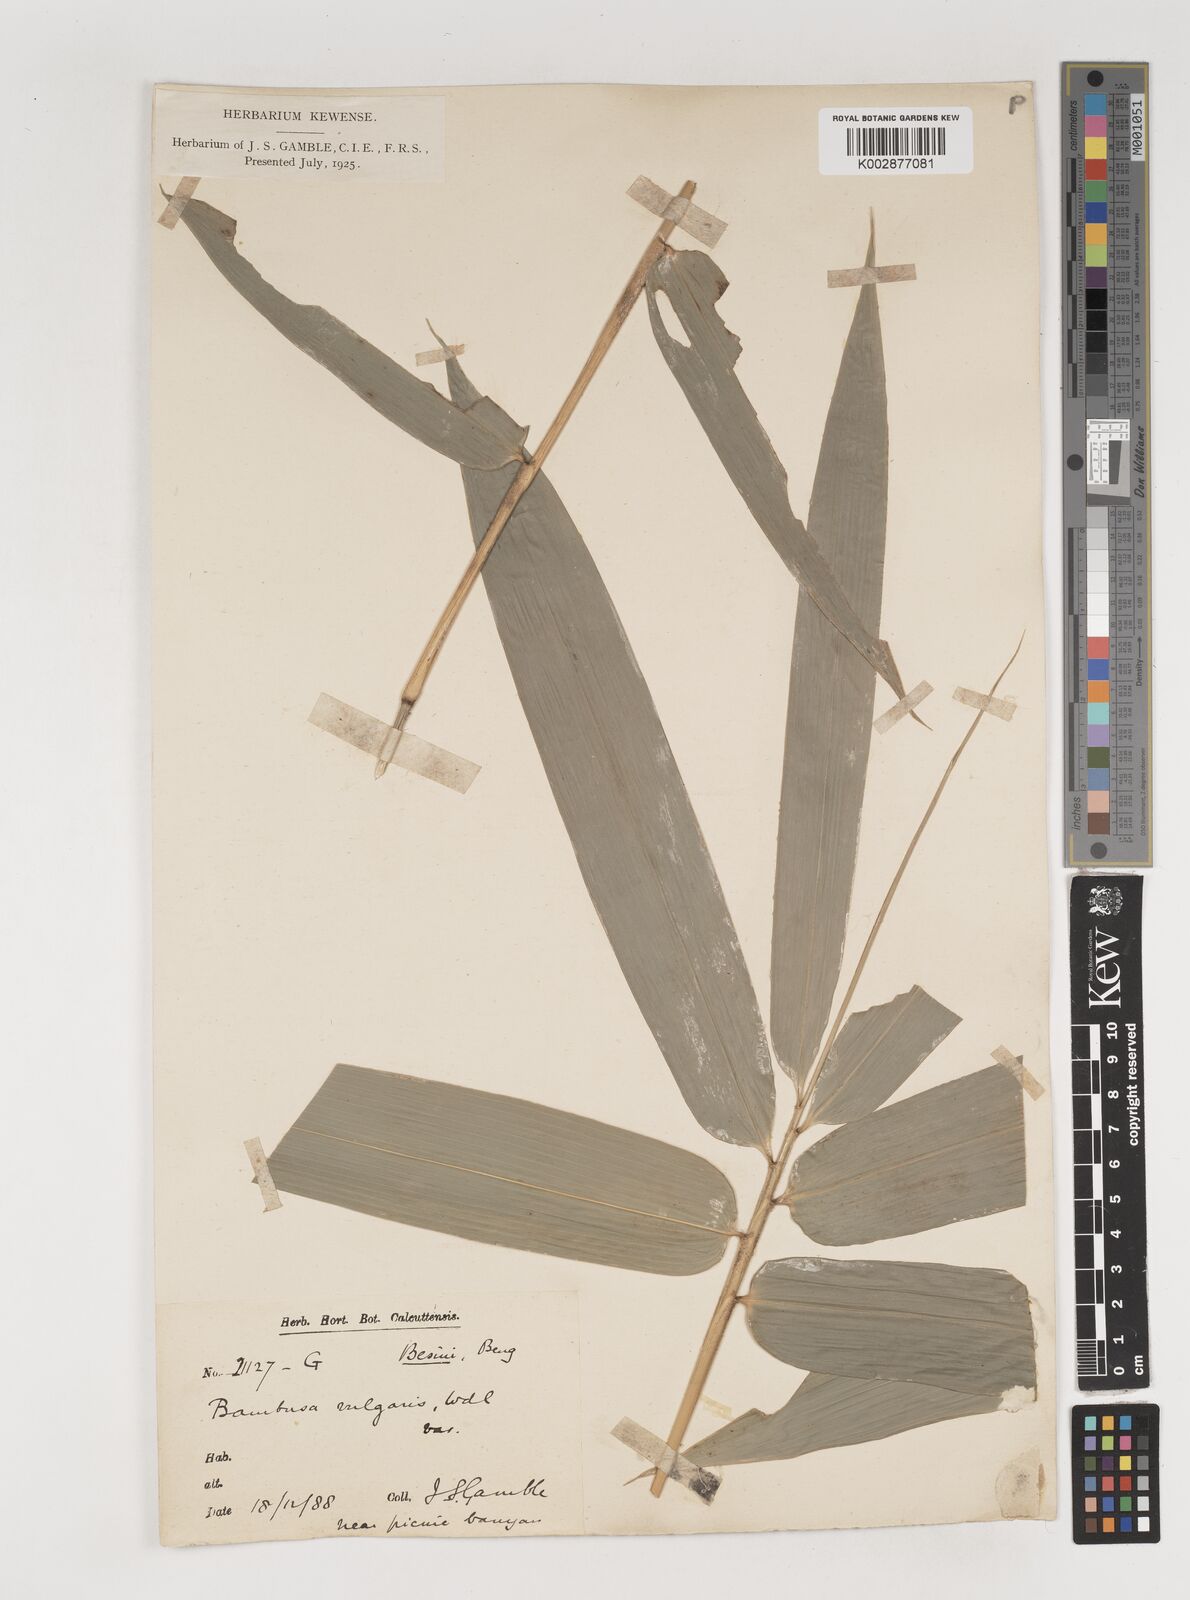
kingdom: Plantae
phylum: Tracheophyta
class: Liliopsida
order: Poales
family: Poaceae
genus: Bambusa
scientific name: Bambusa balcooa
